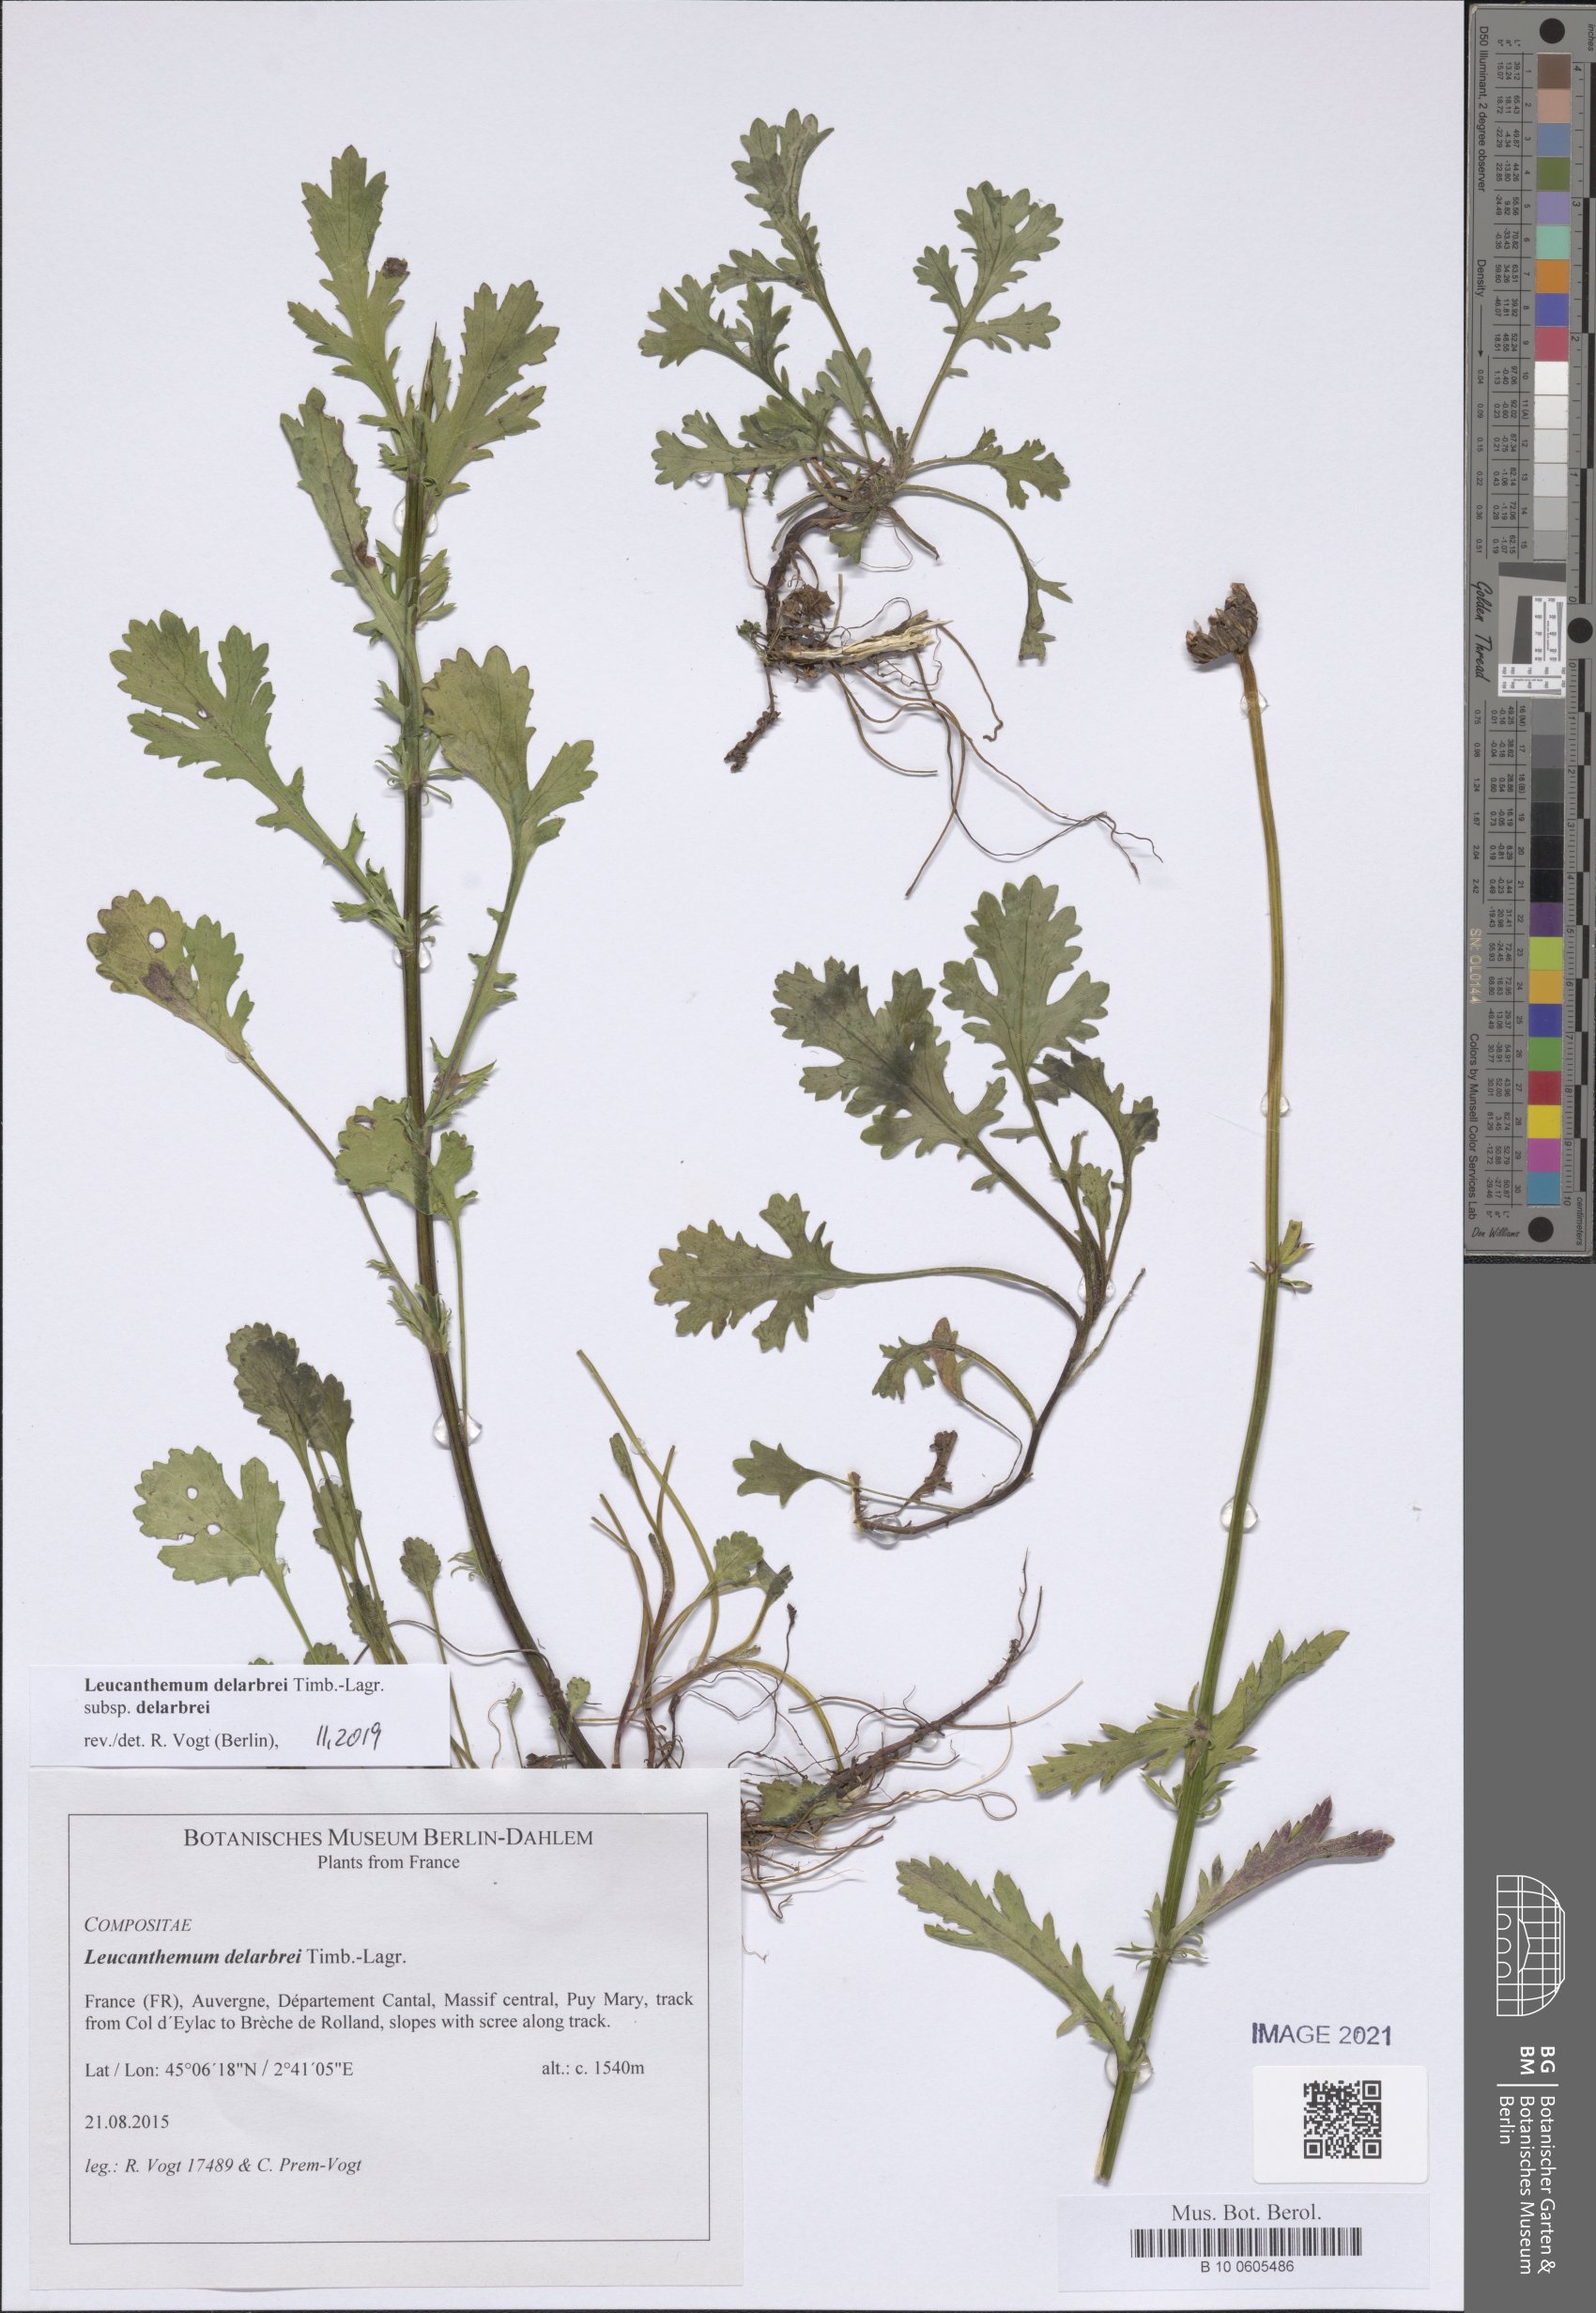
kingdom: Plantae
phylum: Tracheophyta
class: Magnoliopsida
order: Asterales
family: Asteraceae
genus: Leucanthemum
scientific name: Leucanthemum delarbrei
